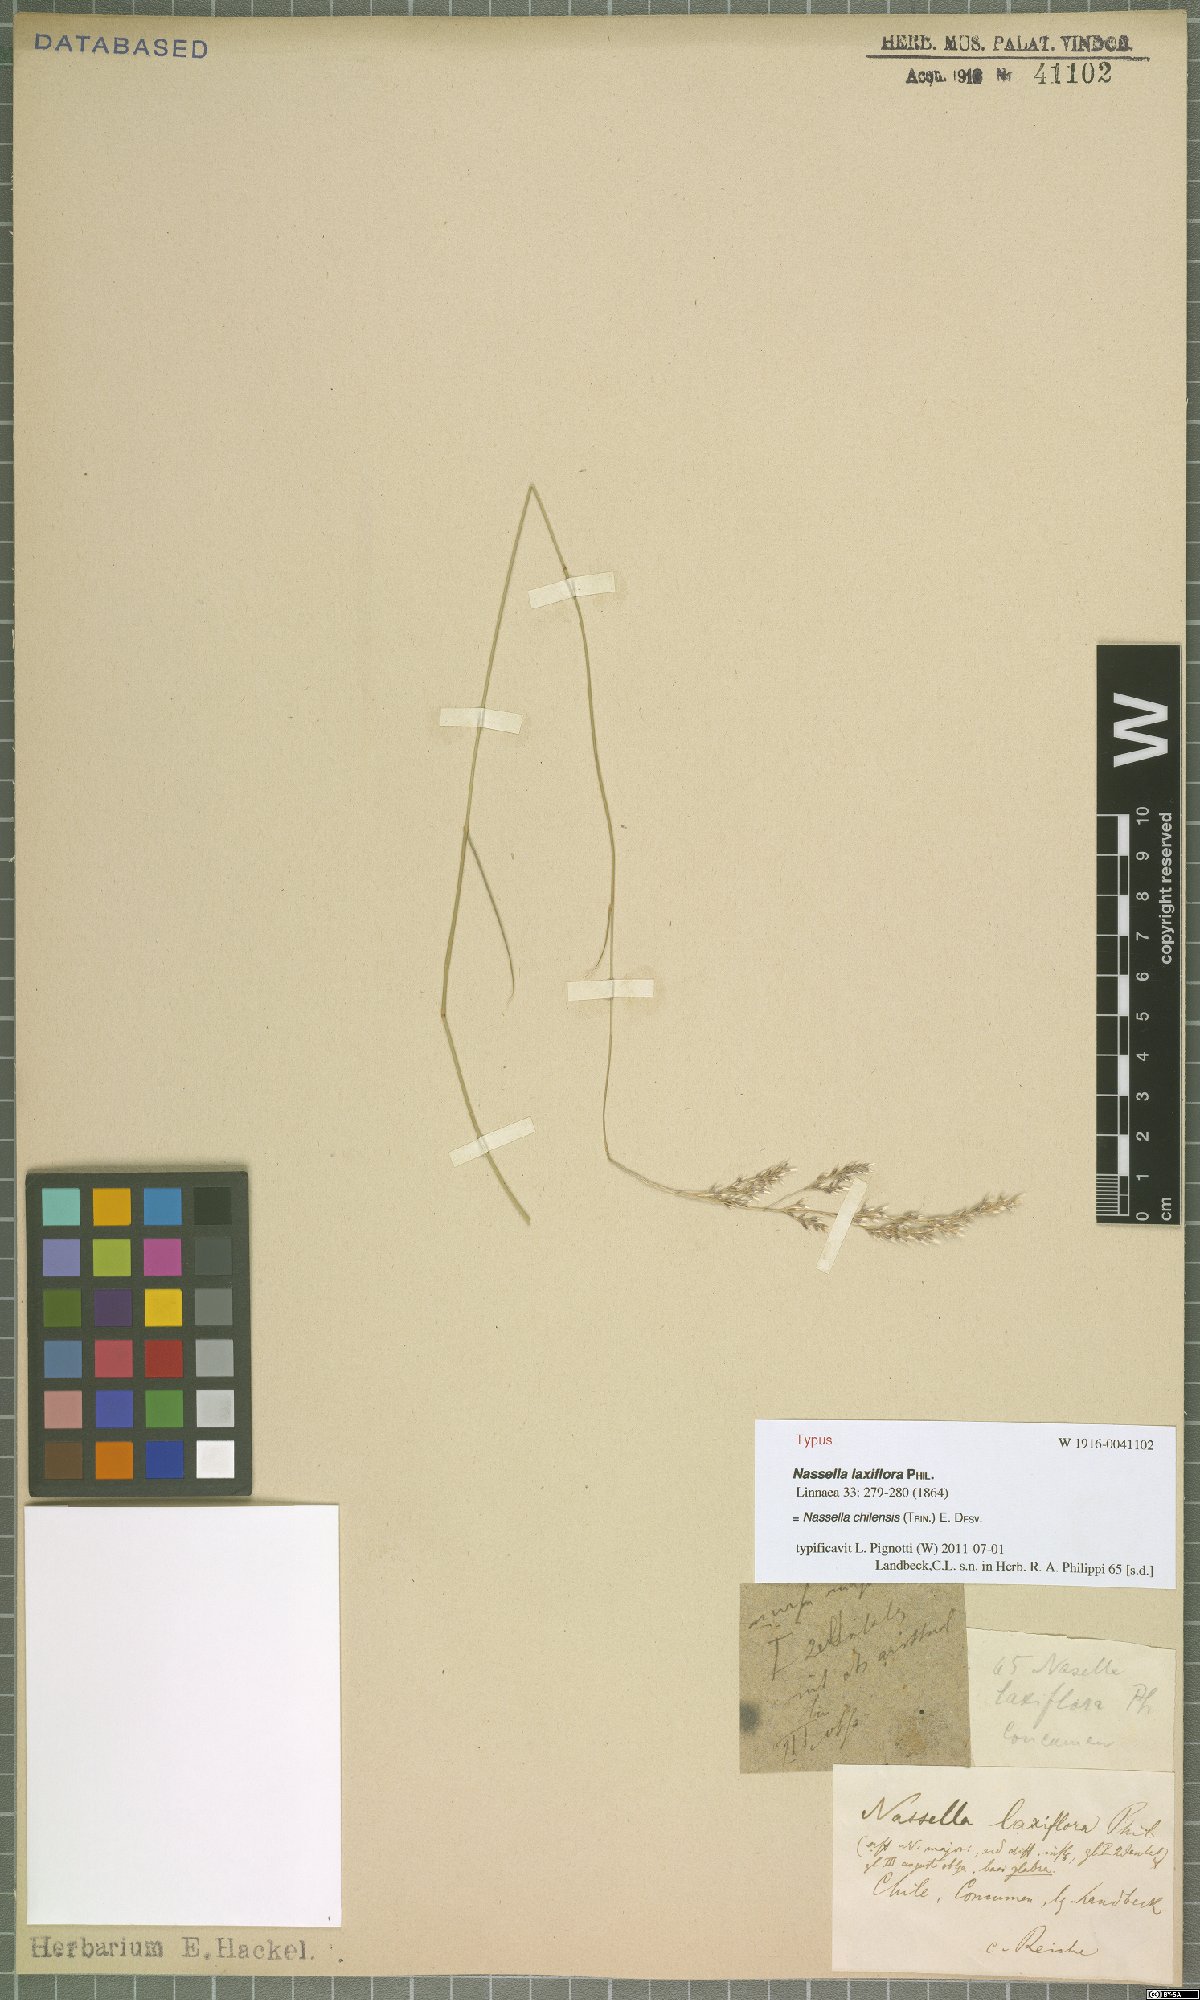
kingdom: Plantae
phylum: Tracheophyta
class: Liliopsida
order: Poales
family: Poaceae
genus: Nassella
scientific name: Nassella chilensis
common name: Chilean needlegrass
